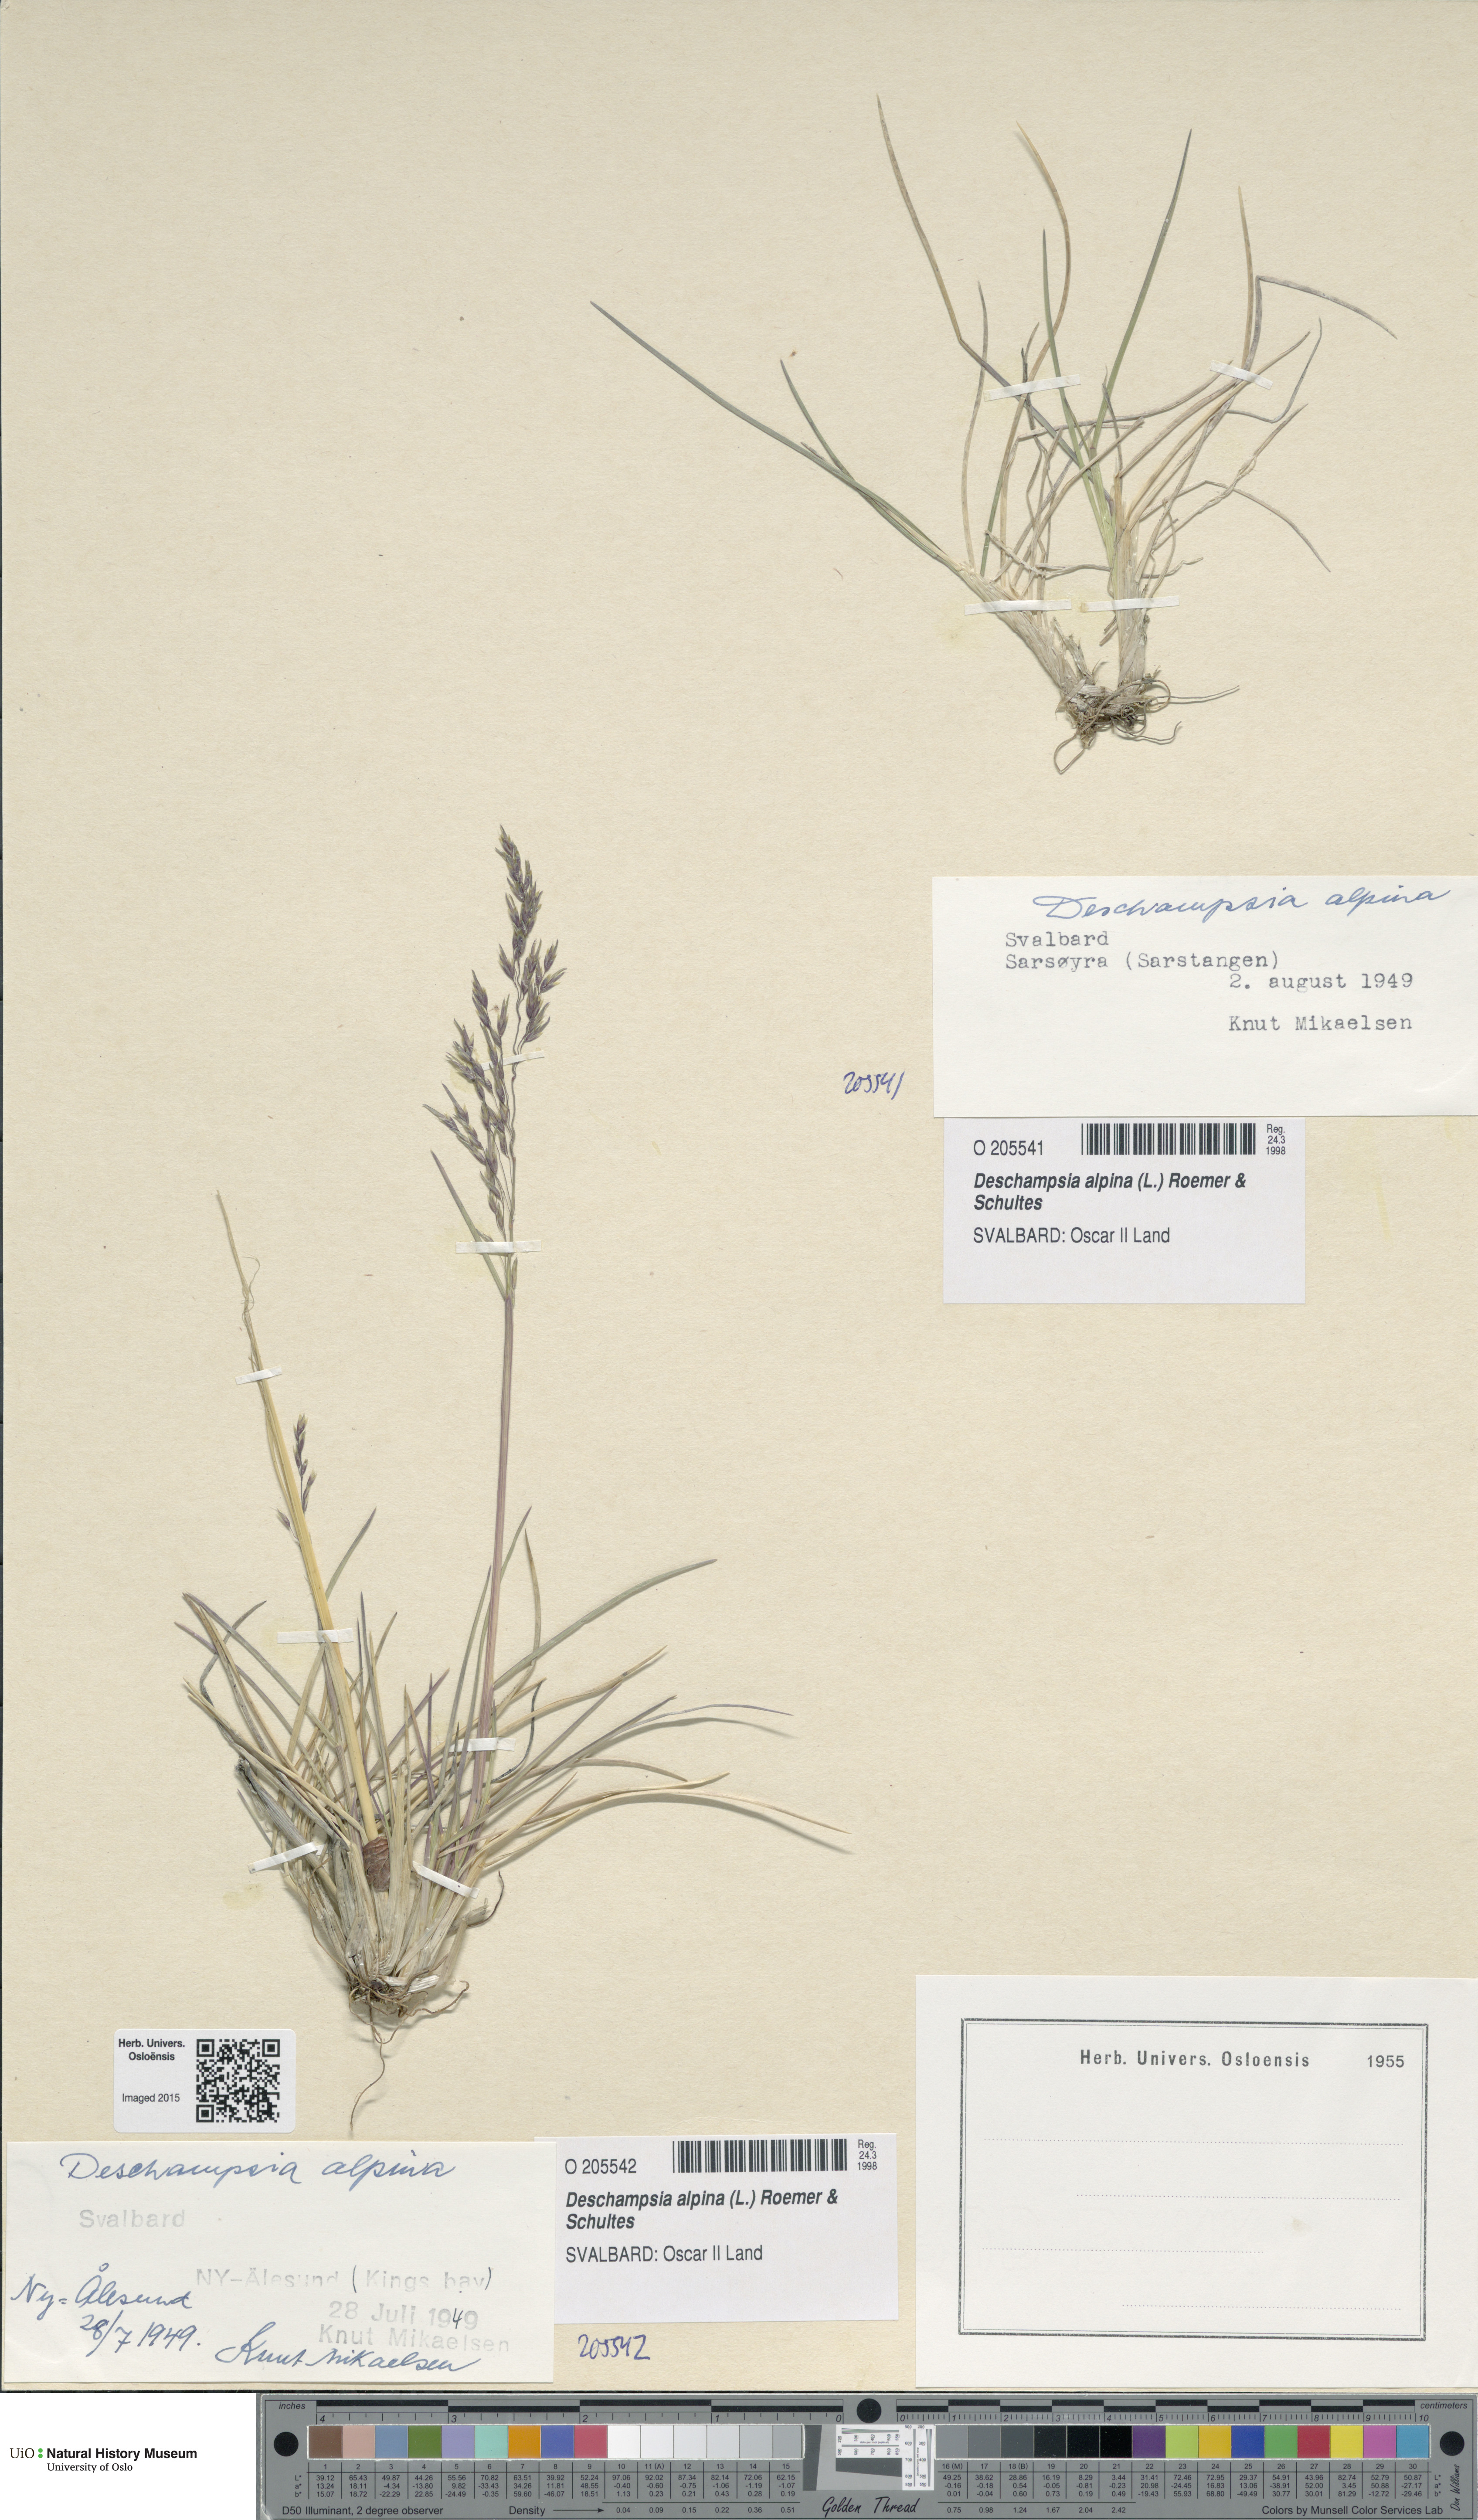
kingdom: Plantae
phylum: Tracheophyta
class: Liliopsida
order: Poales
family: Poaceae
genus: Deschampsia
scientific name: Deschampsia cespitosa
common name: Tufted hair-grass
